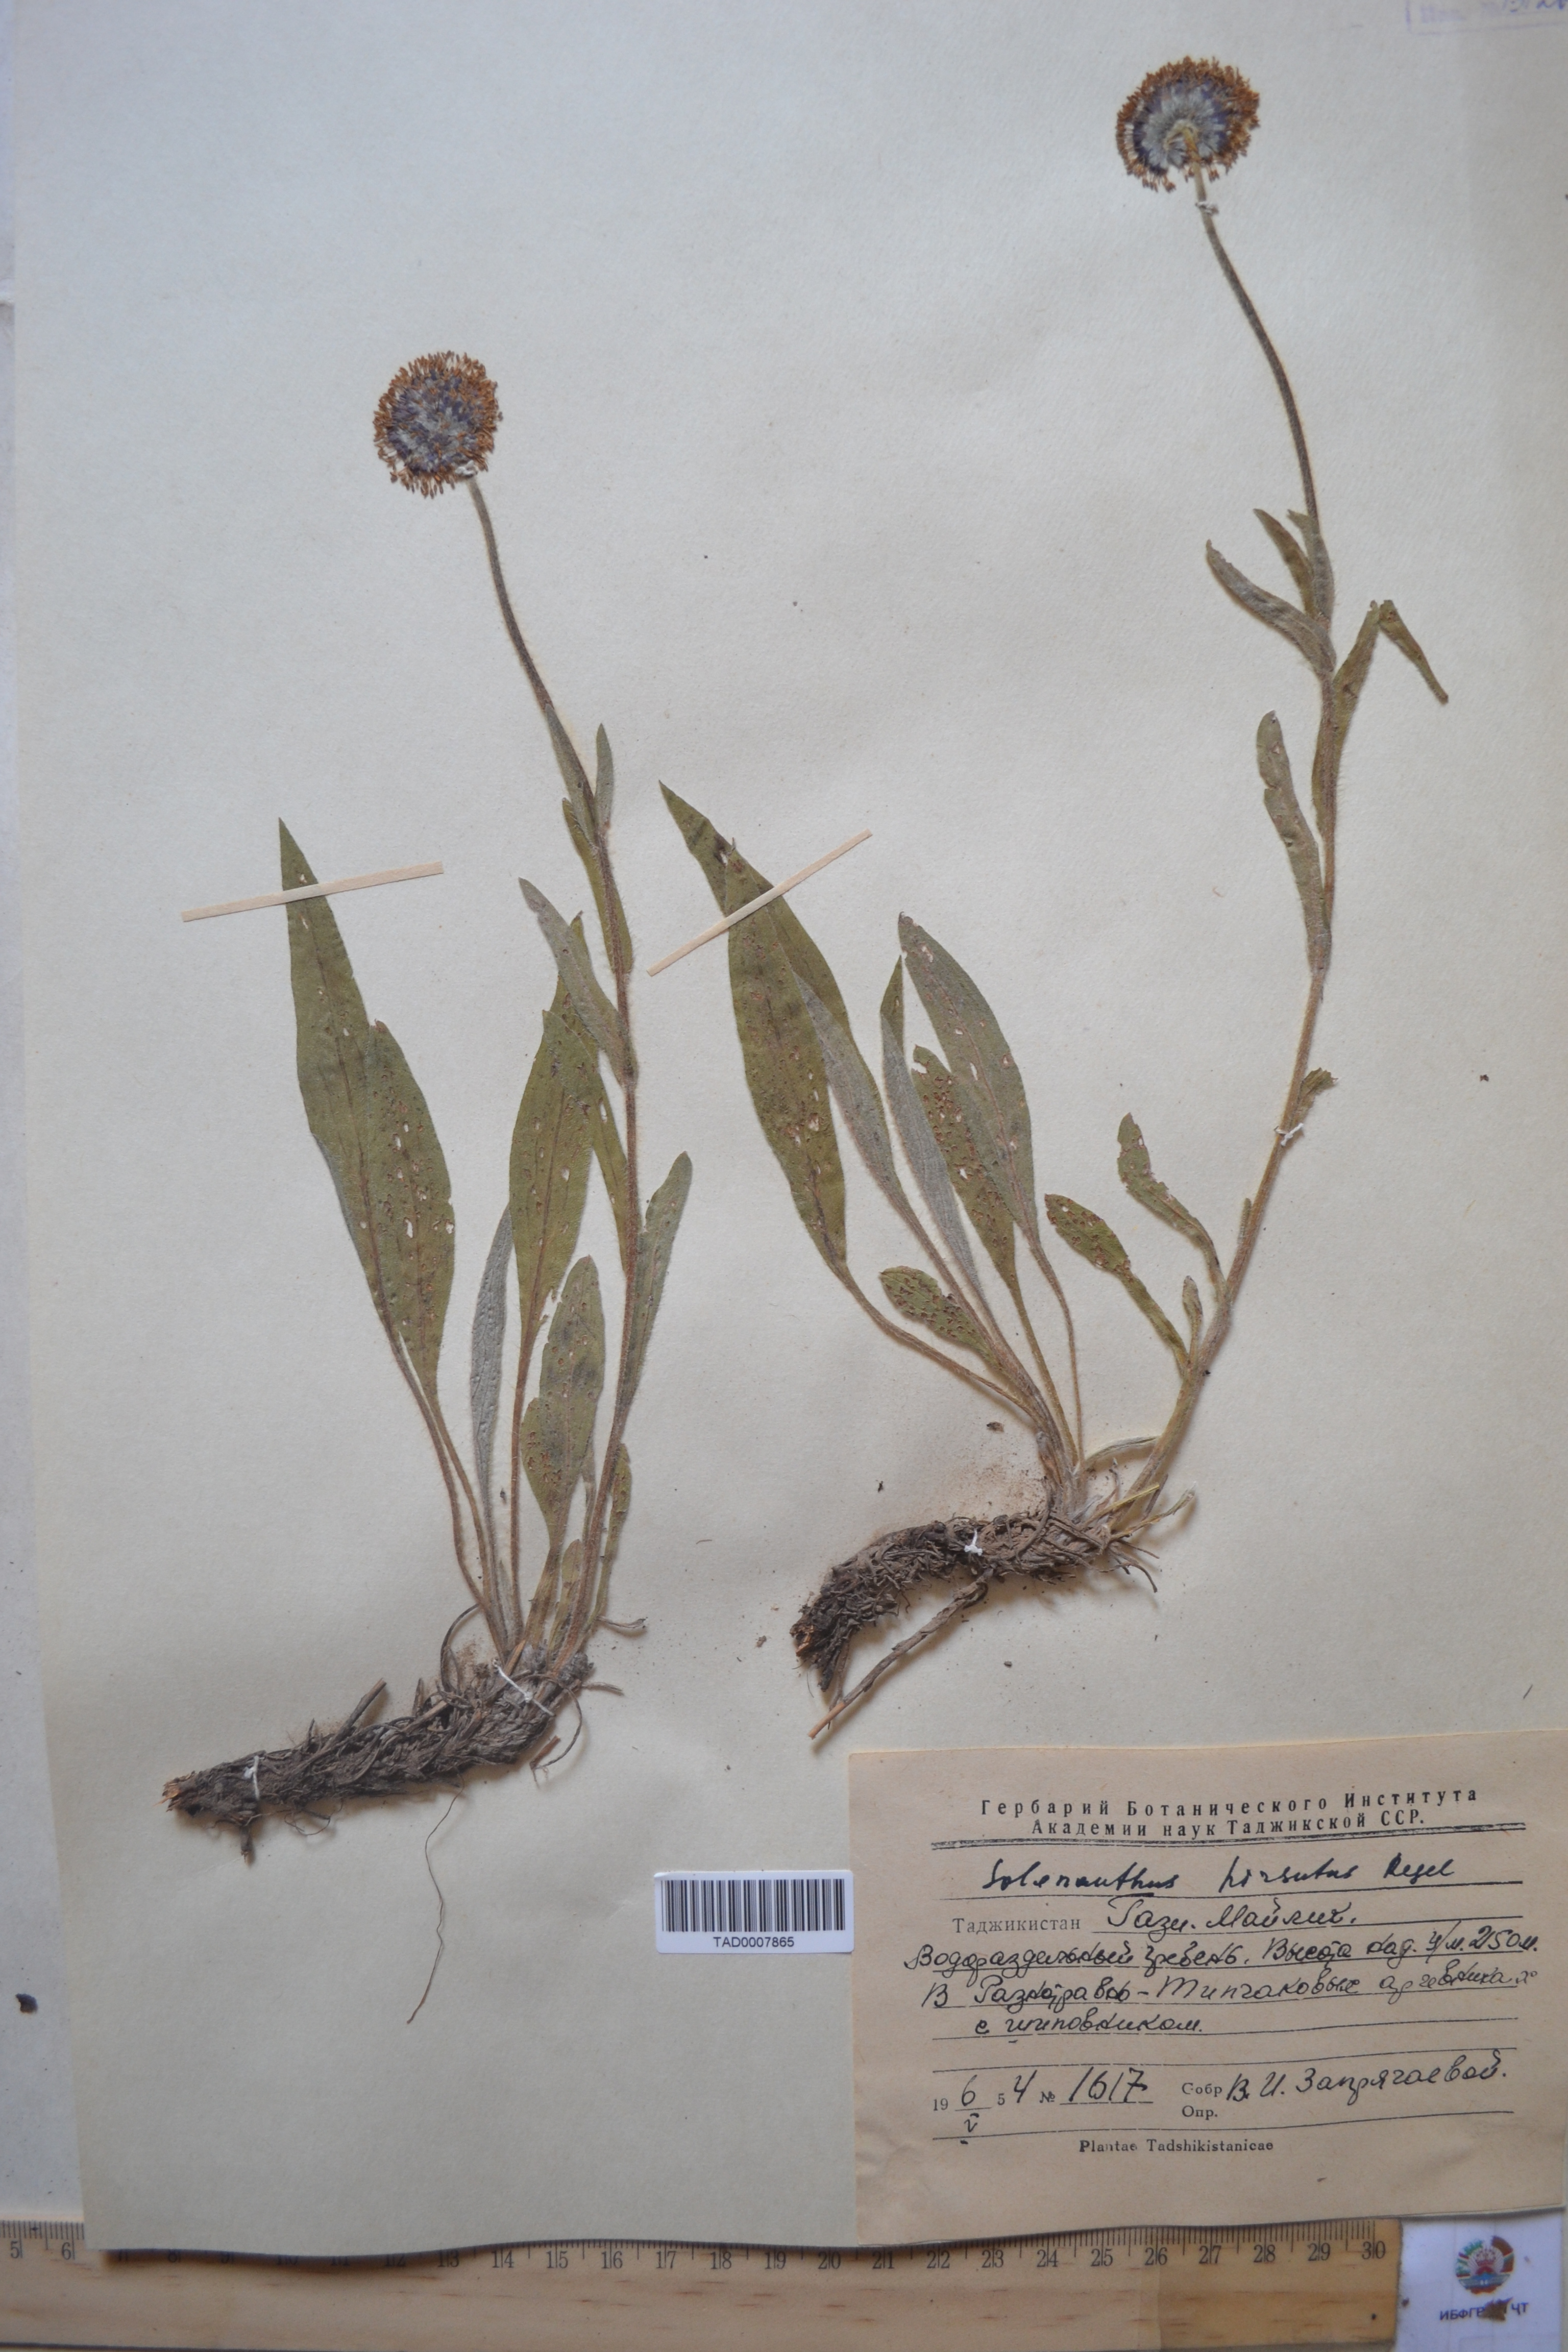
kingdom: Plantae
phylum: Tracheophyta
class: Magnoliopsida
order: Boraginales
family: Boraginaceae
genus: Solenanthus
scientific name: Solenanthus hirsutus
